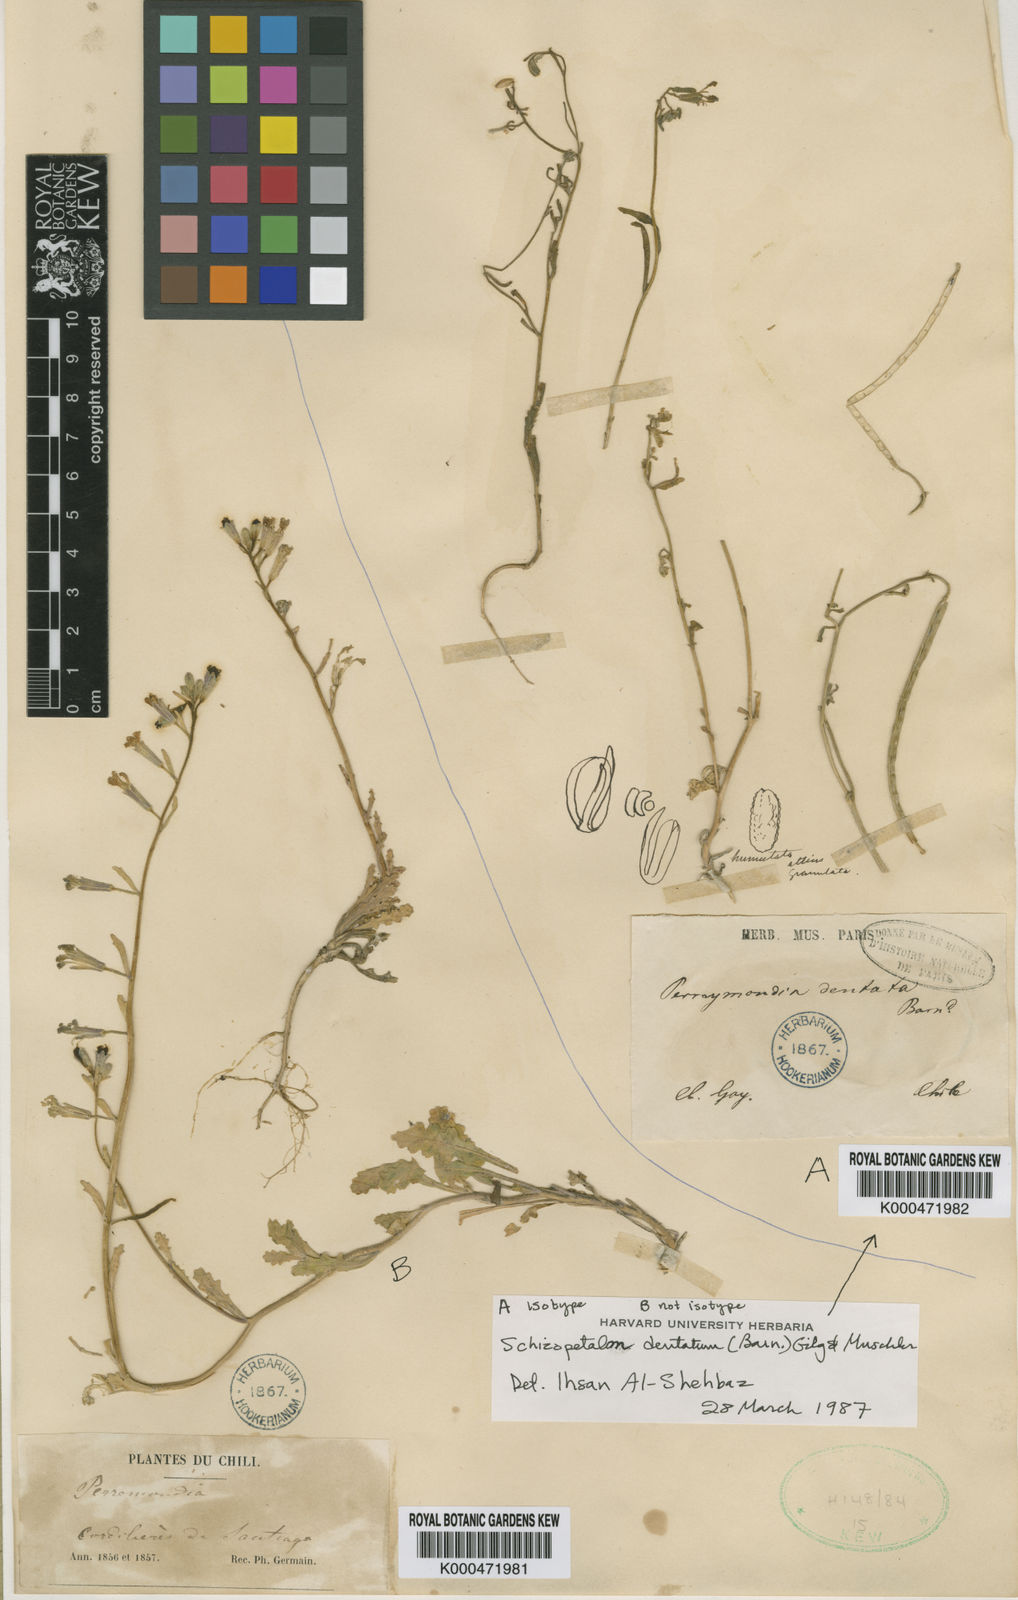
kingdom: Plantae
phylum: Tracheophyta
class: Magnoliopsida
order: Brassicales
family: Brassicaceae
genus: Schizopetalon
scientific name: Schizopetalon
